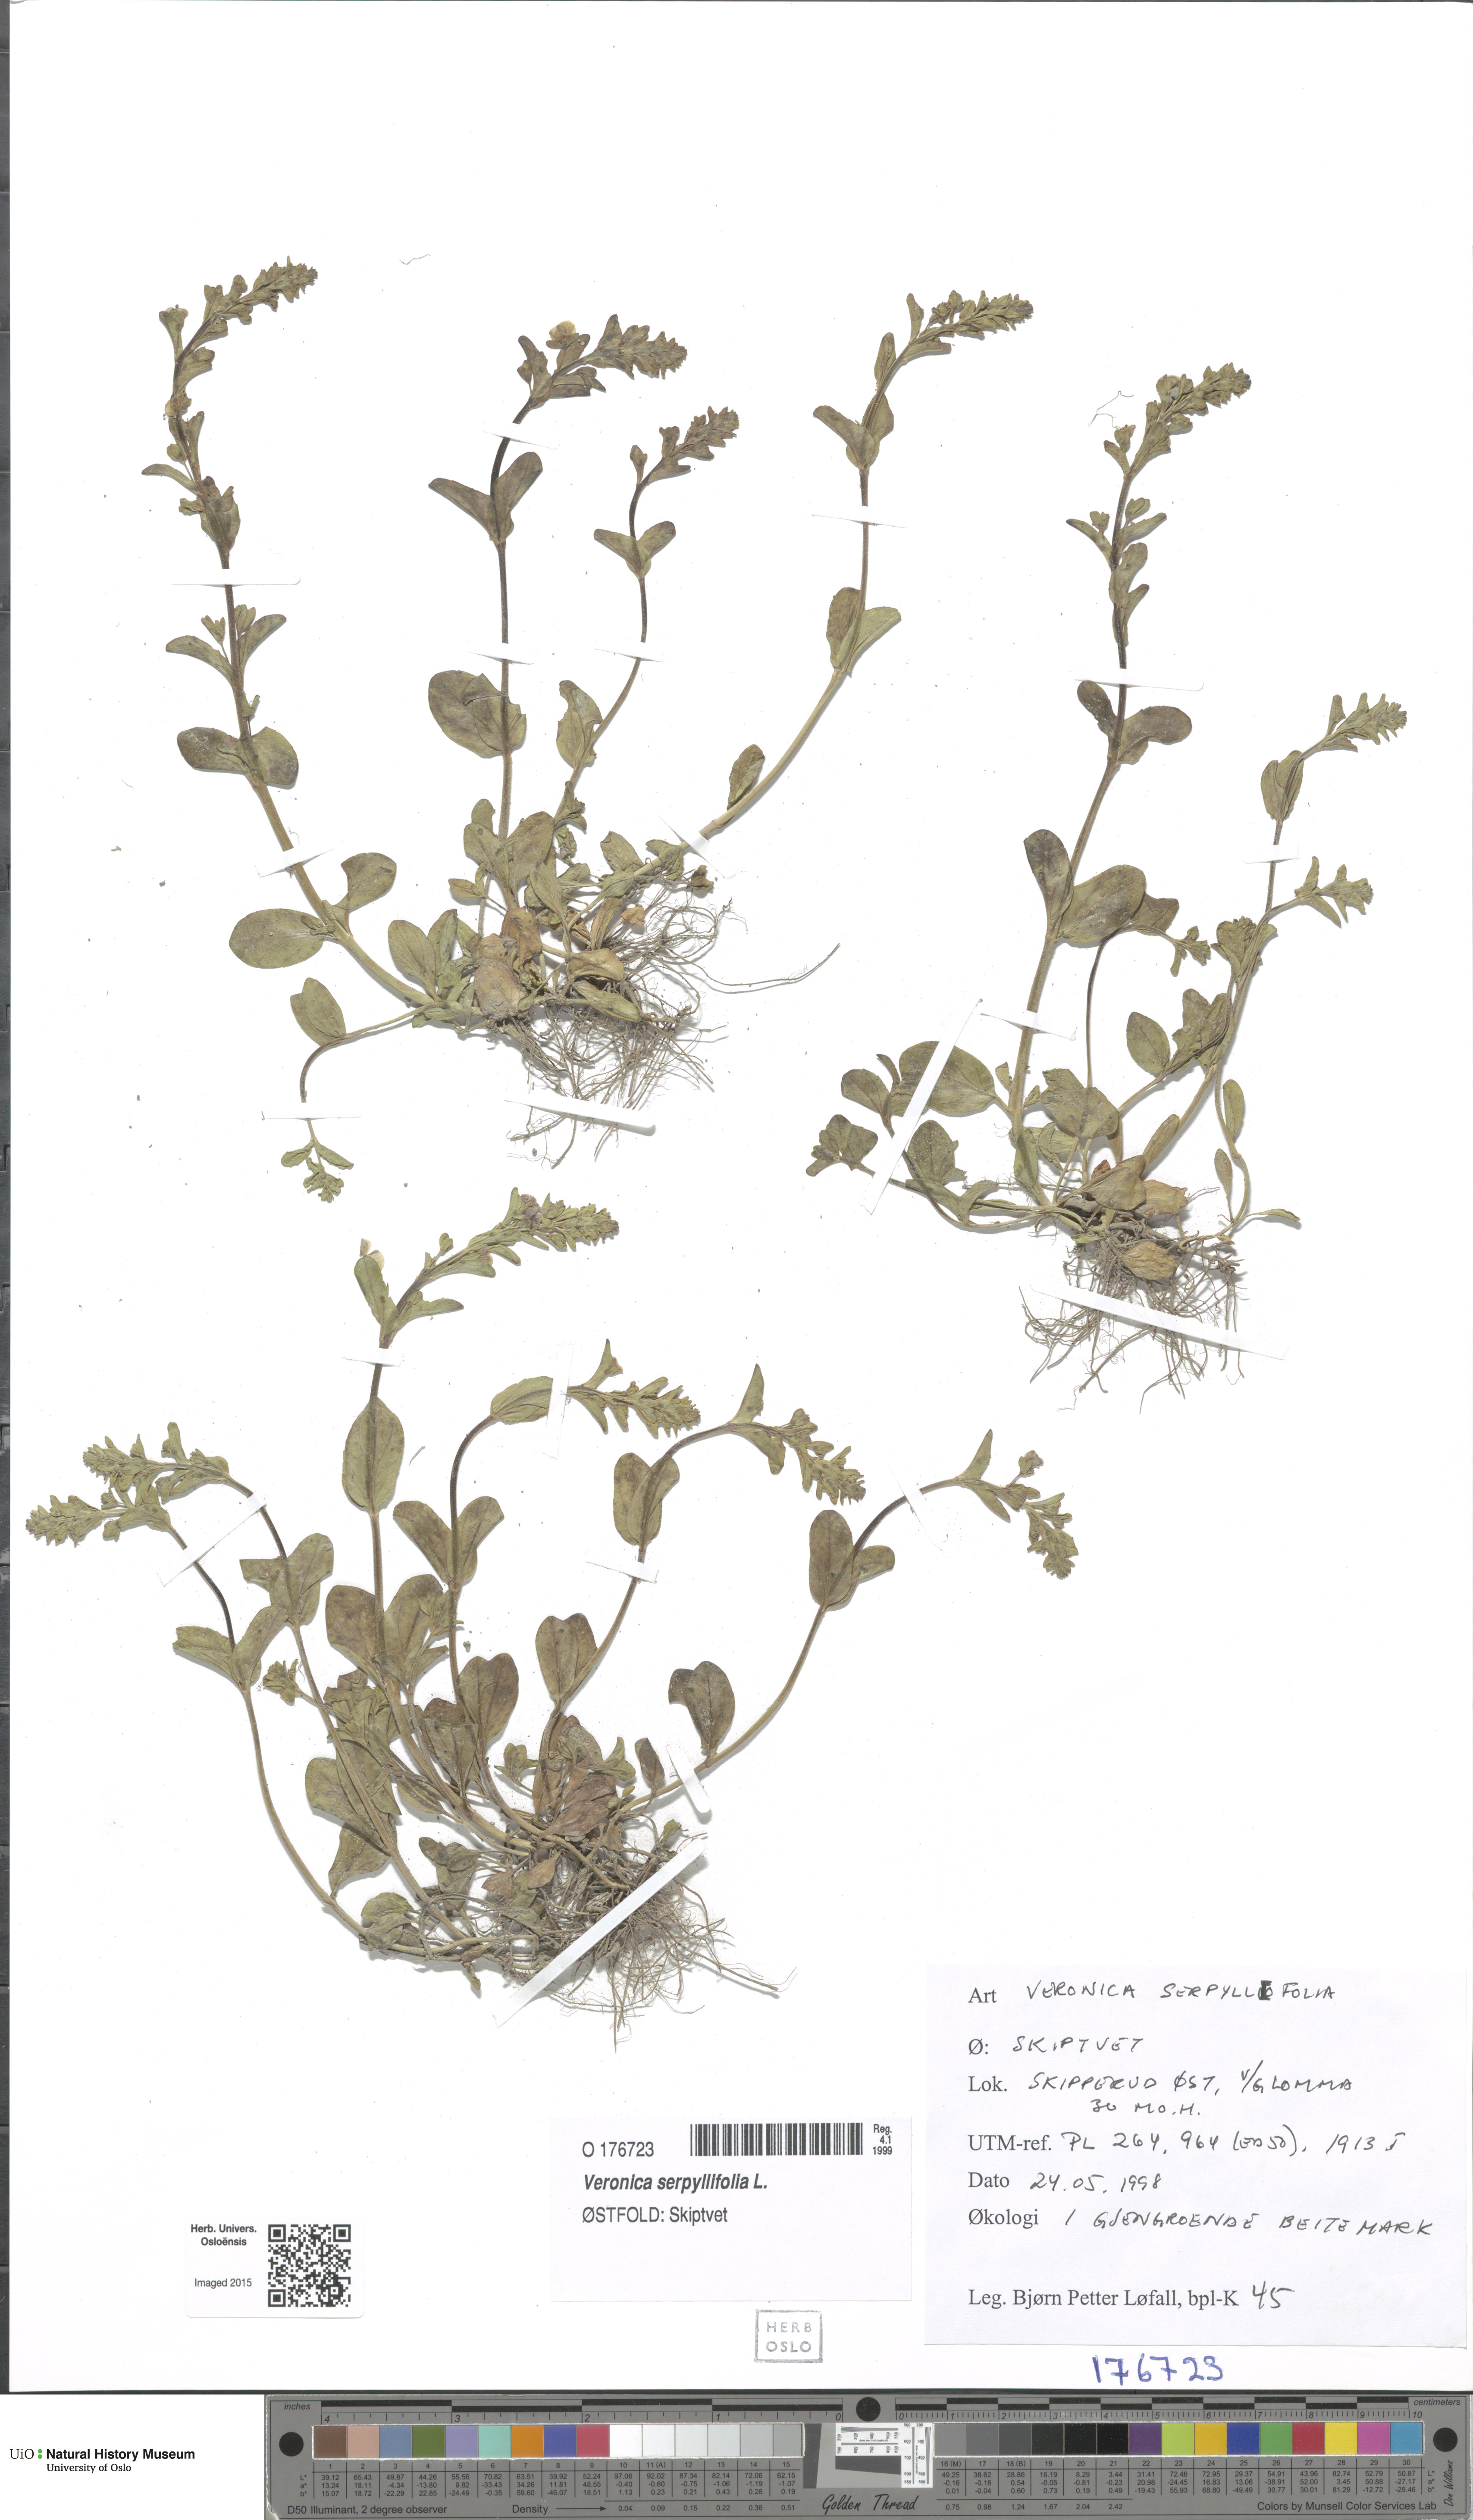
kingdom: Plantae
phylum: Tracheophyta
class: Magnoliopsida
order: Lamiales
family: Plantaginaceae
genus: Veronica
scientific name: Veronica serpyllifolia
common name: Thyme-leaved speedwell
